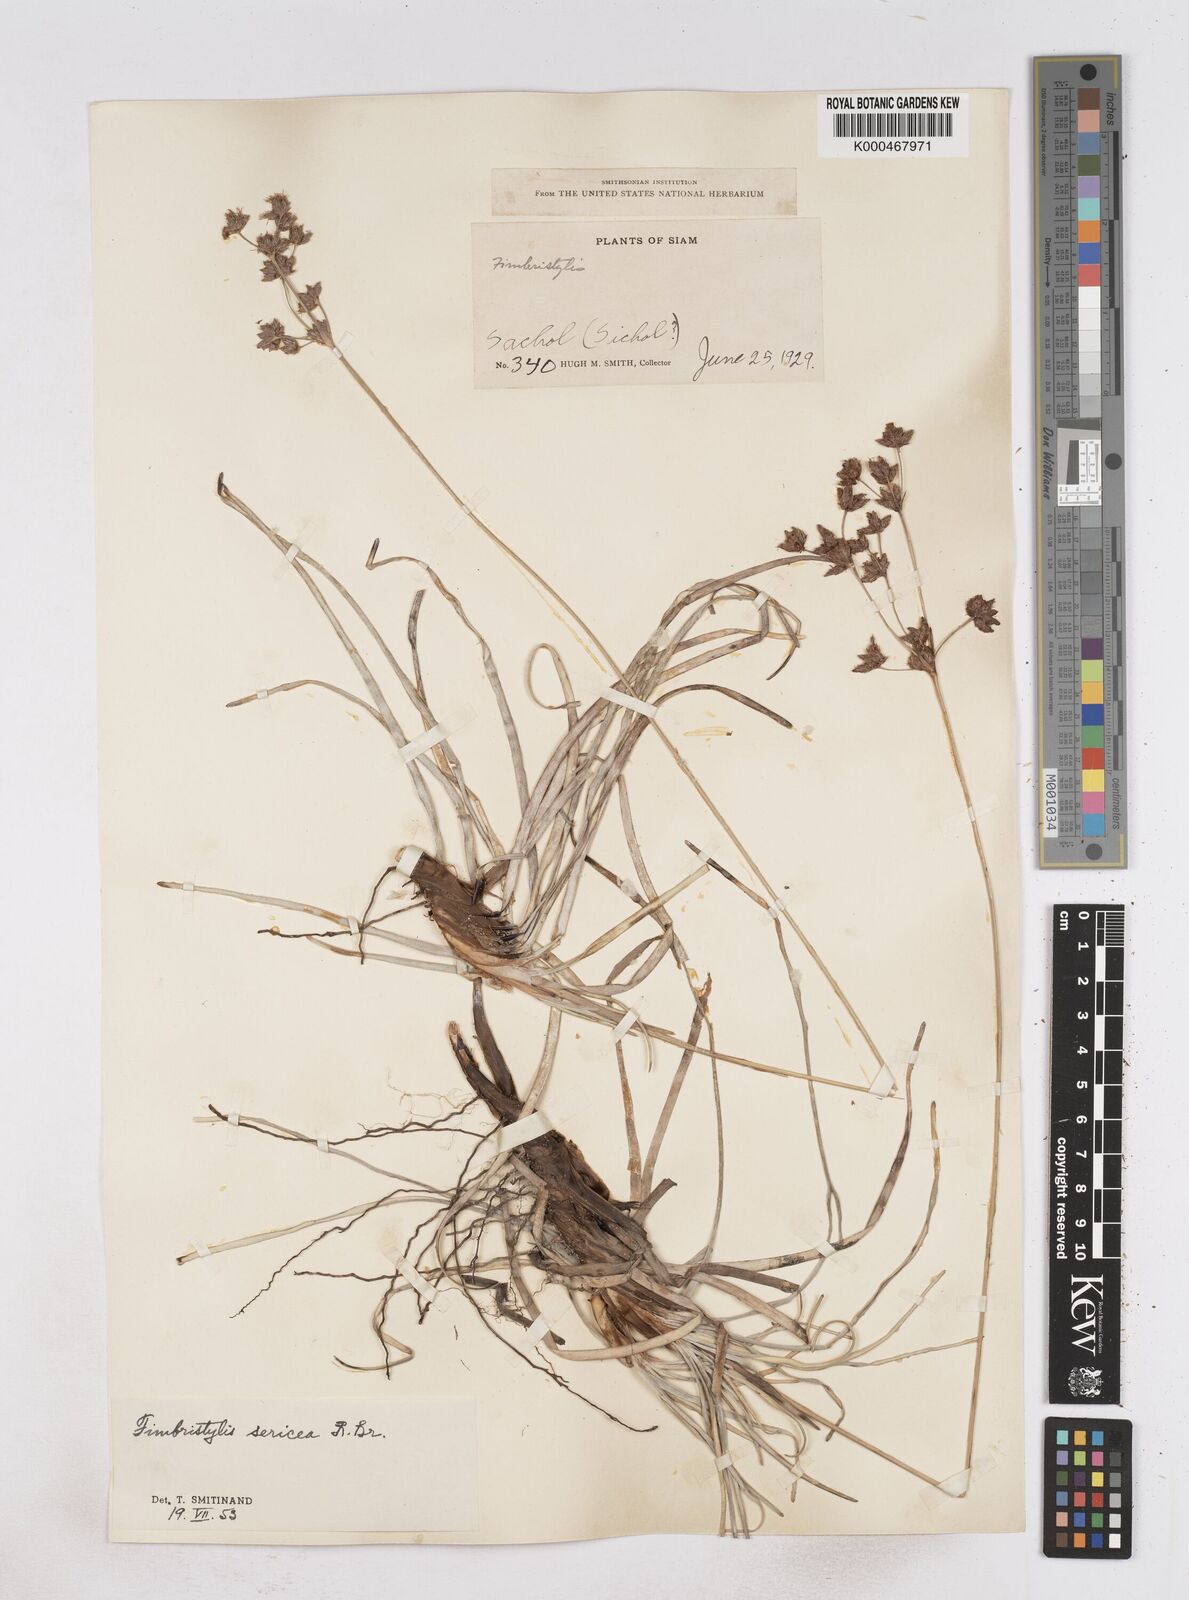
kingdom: Plantae
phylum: Tracheophyta
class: Liliopsida
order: Poales
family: Cyperaceae
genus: Fimbristylis
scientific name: Fimbristylis sericea
